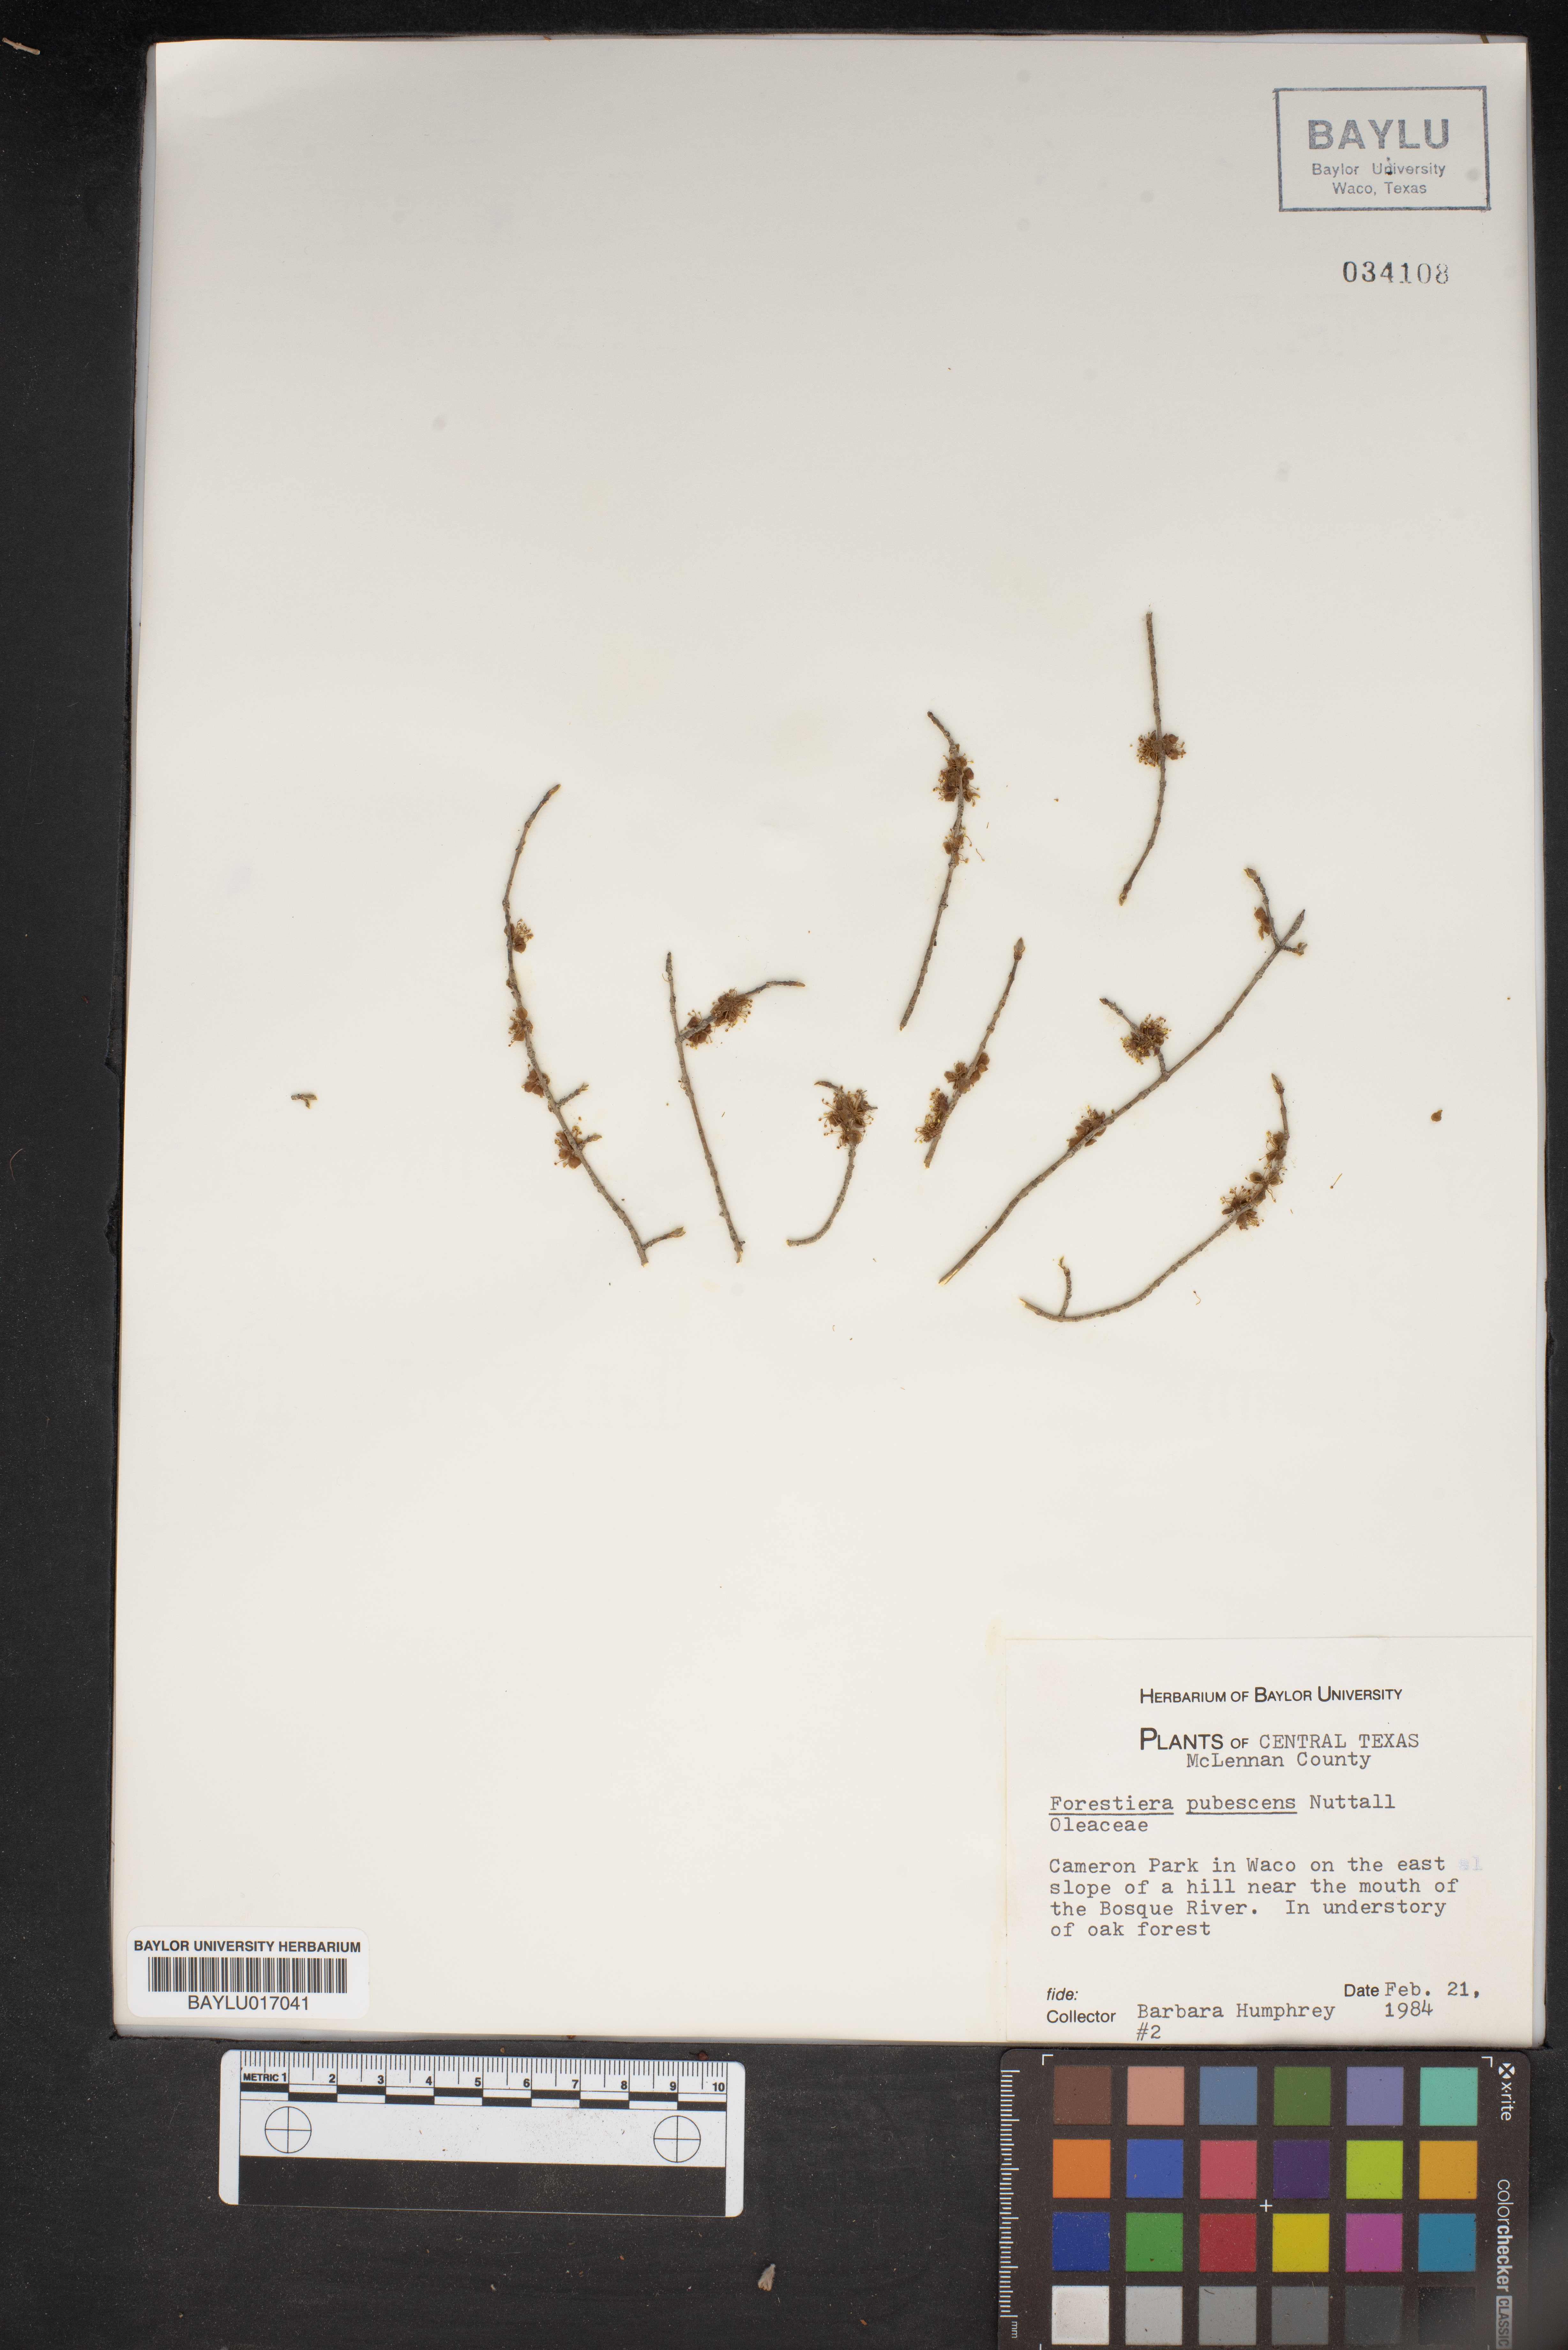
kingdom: Plantae
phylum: Tracheophyta
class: Magnoliopsida
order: Lamiales
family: Oleaceae
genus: Forestiera
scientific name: Forestiera pubescens
